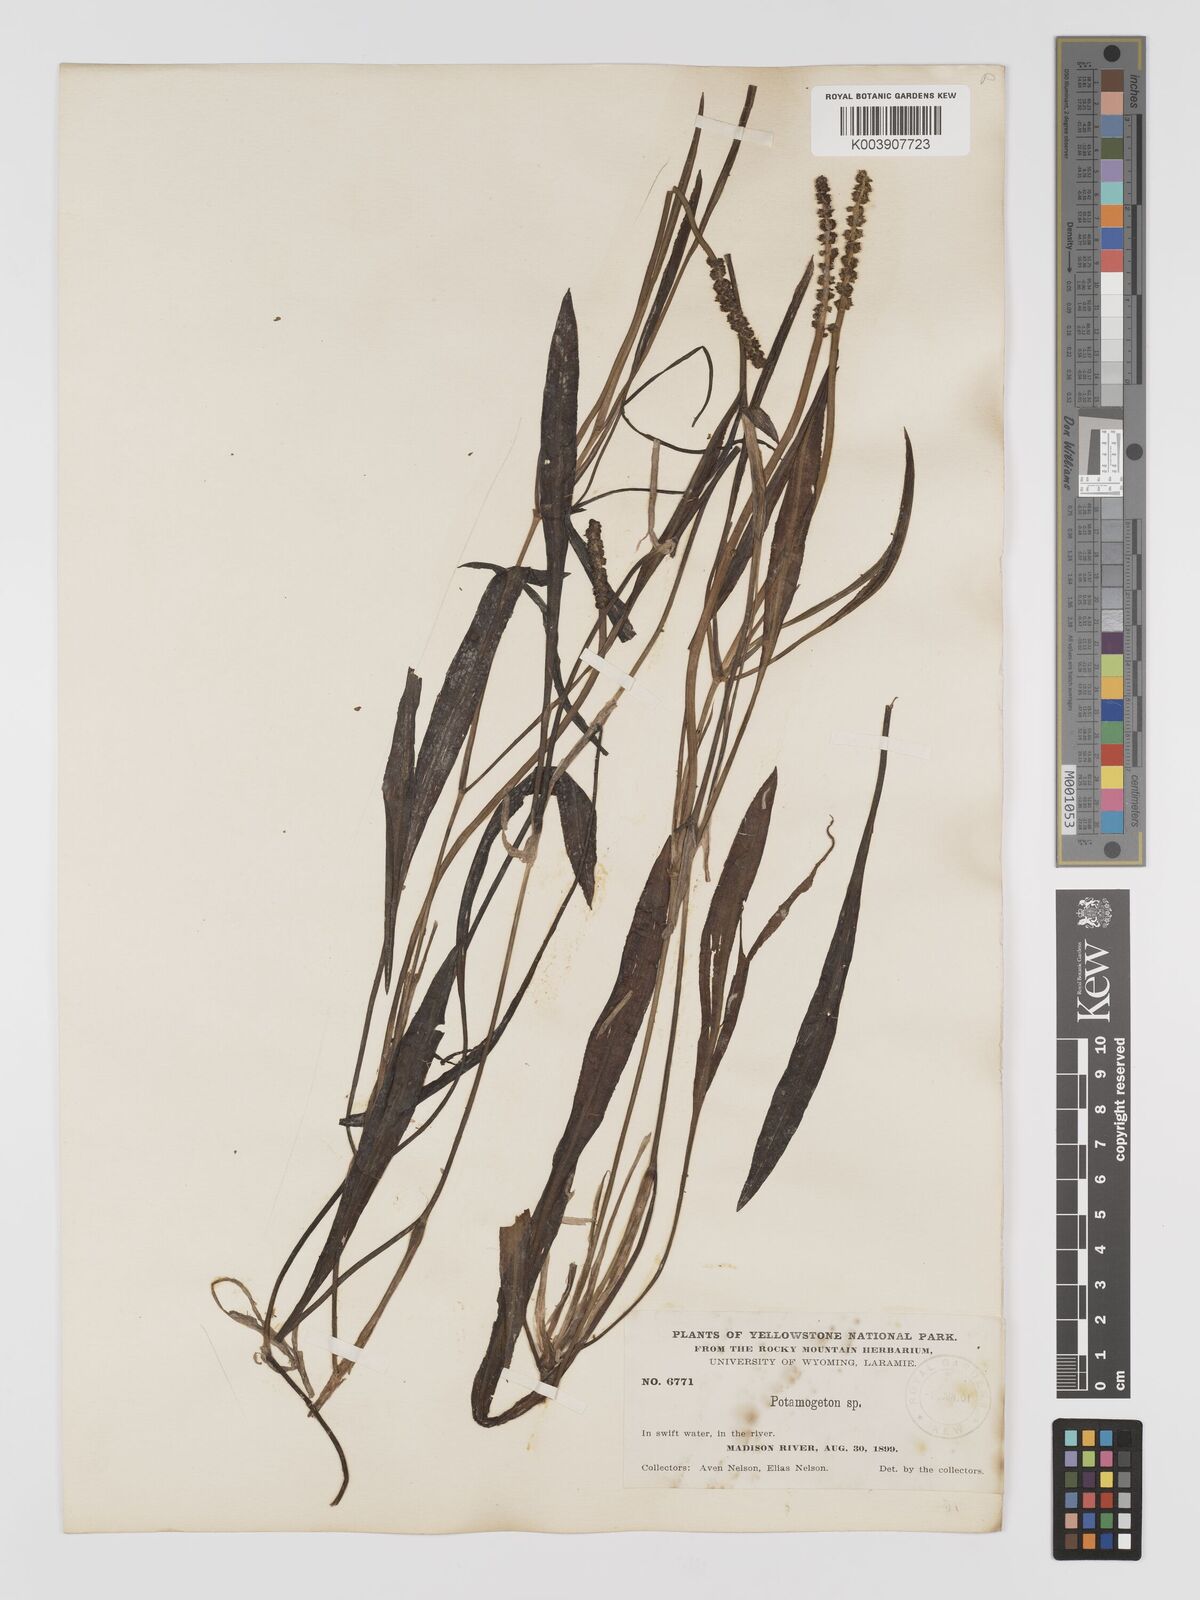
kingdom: Plantae
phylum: Tracheophyta
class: Liliopsida
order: Alismatales
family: Potamogetonaceae
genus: Potamogeton
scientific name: Potamogeton lucens
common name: Shining pondweed
